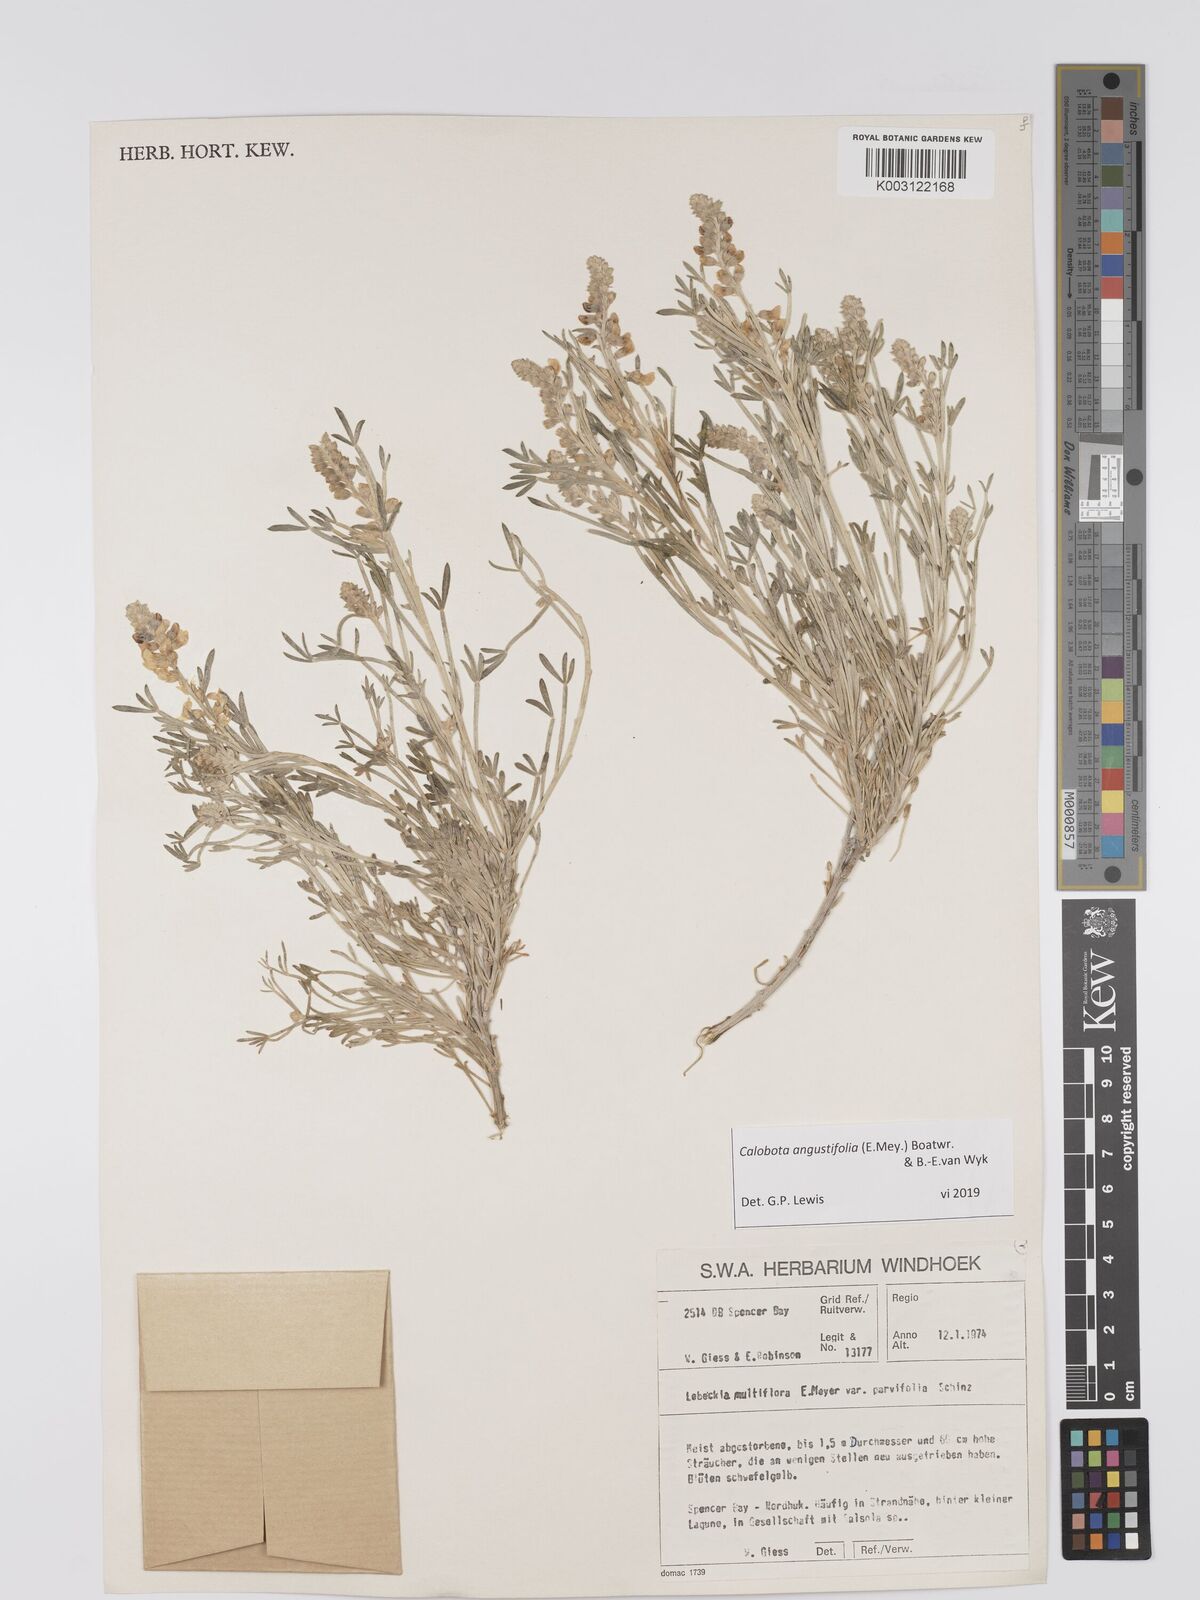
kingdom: Plantae
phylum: Tracheophyta
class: Magnoliopsida
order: Fabales
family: Fabaceae
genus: Calobota
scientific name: Calobota angustifolia
